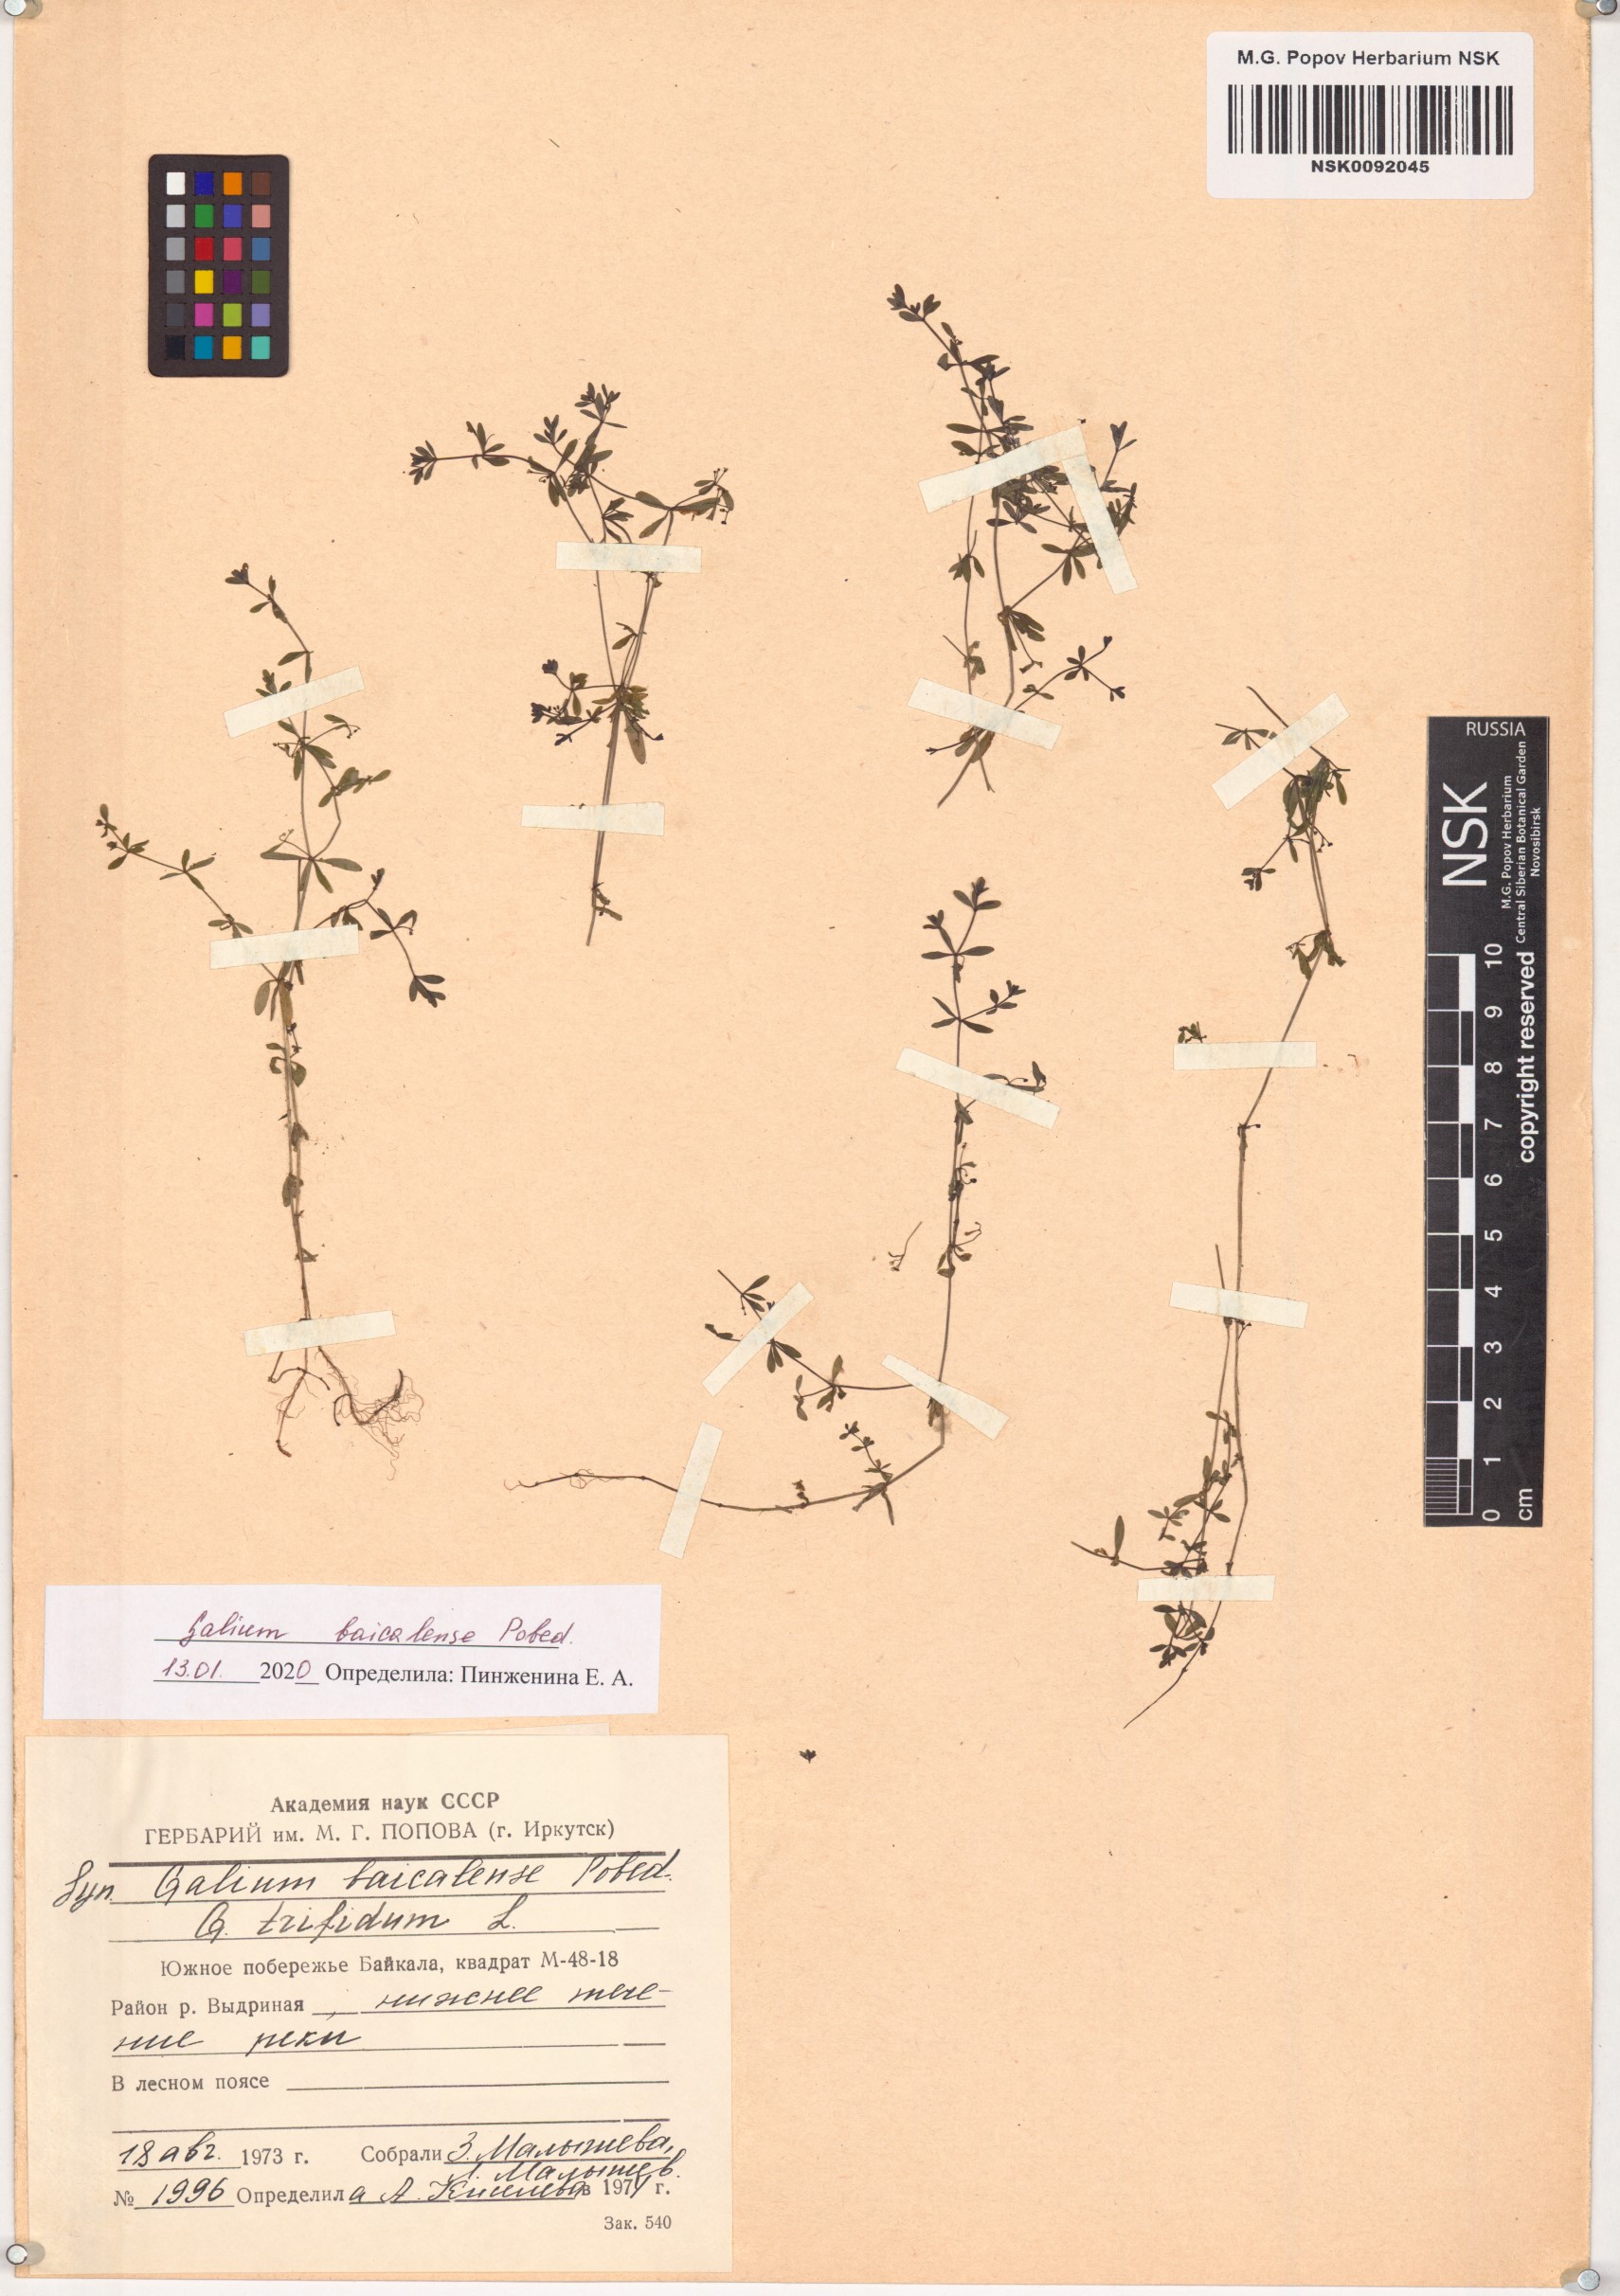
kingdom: Plantae
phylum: Tracheophyta
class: Magnoliopsida
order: Gentianales
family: Rubiaceae
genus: Galium
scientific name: Galium trifidum
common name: Small bedstraw
